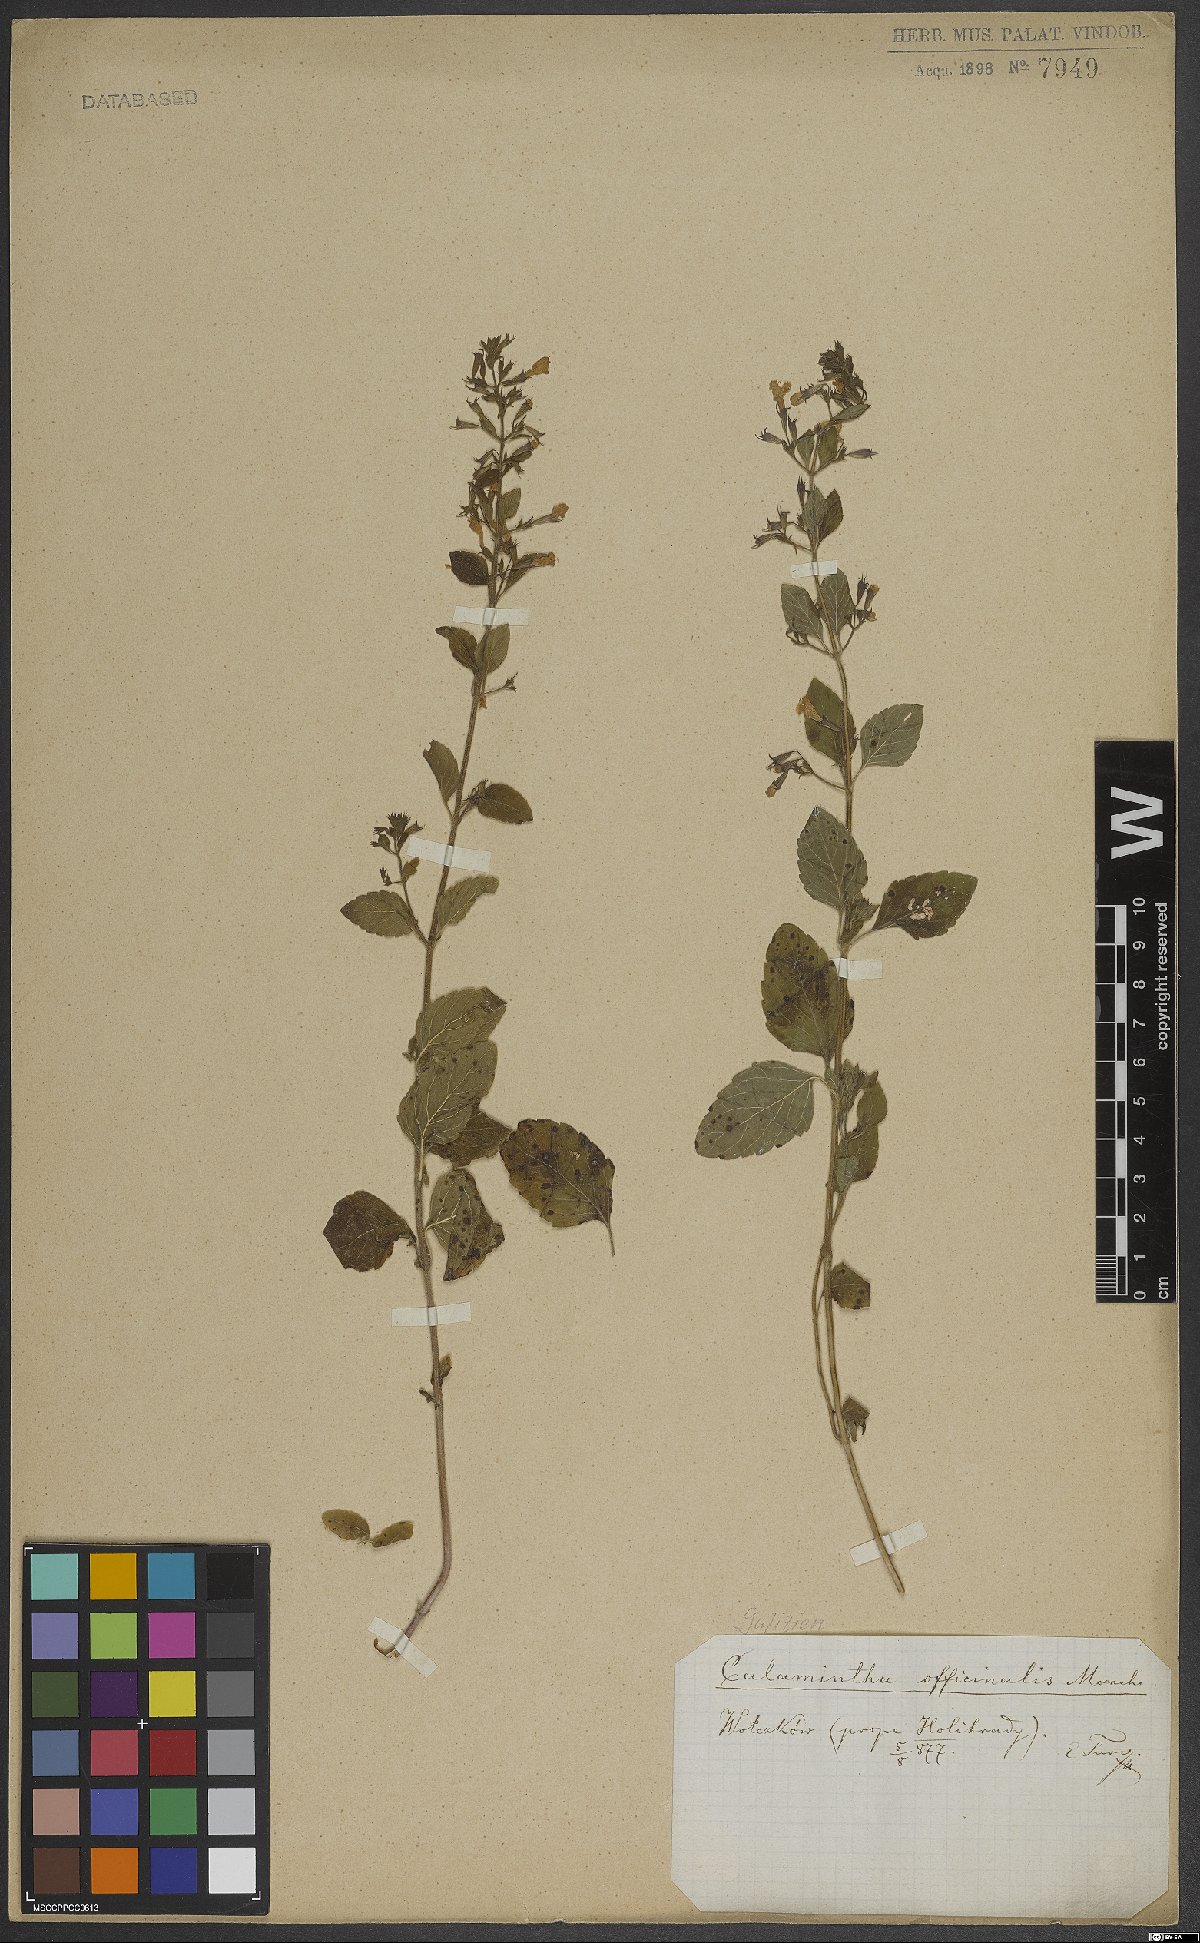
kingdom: Plantae
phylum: Tracheophyta
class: Magnoliopsida
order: Lamiales
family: Lamiaceae
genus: Clinopodium
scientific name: Clinopodium nepeta
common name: Lesser calamint
